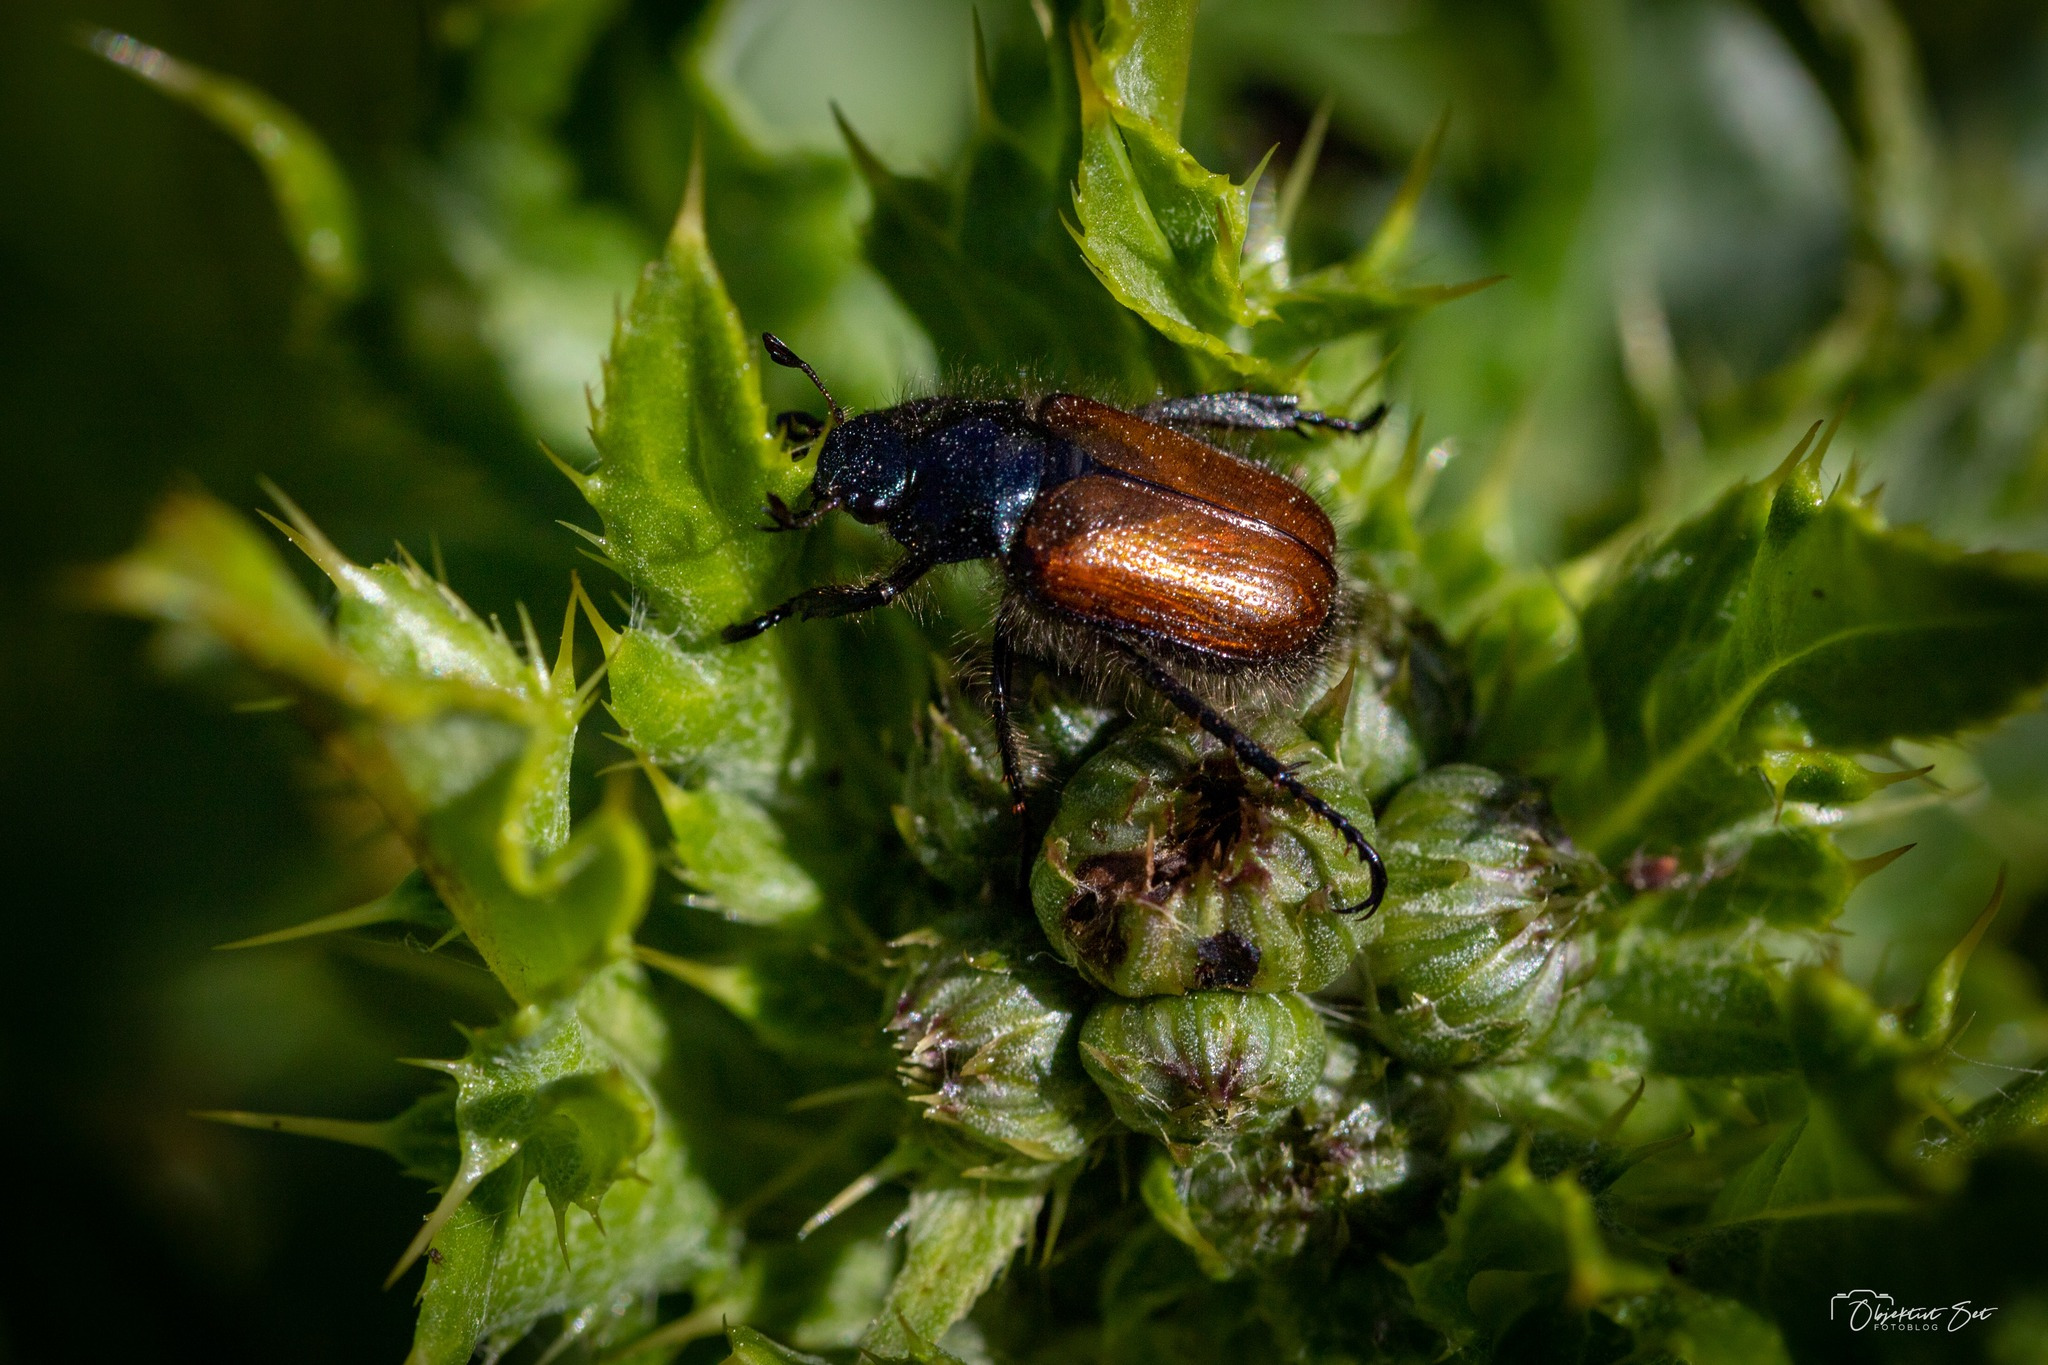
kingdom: Animalia
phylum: Arthropoda
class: Insecta
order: Coleoptera
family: Scarabaeidae
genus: Phyllopertha
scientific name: Phyllopertha horticola
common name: Gåsebille
